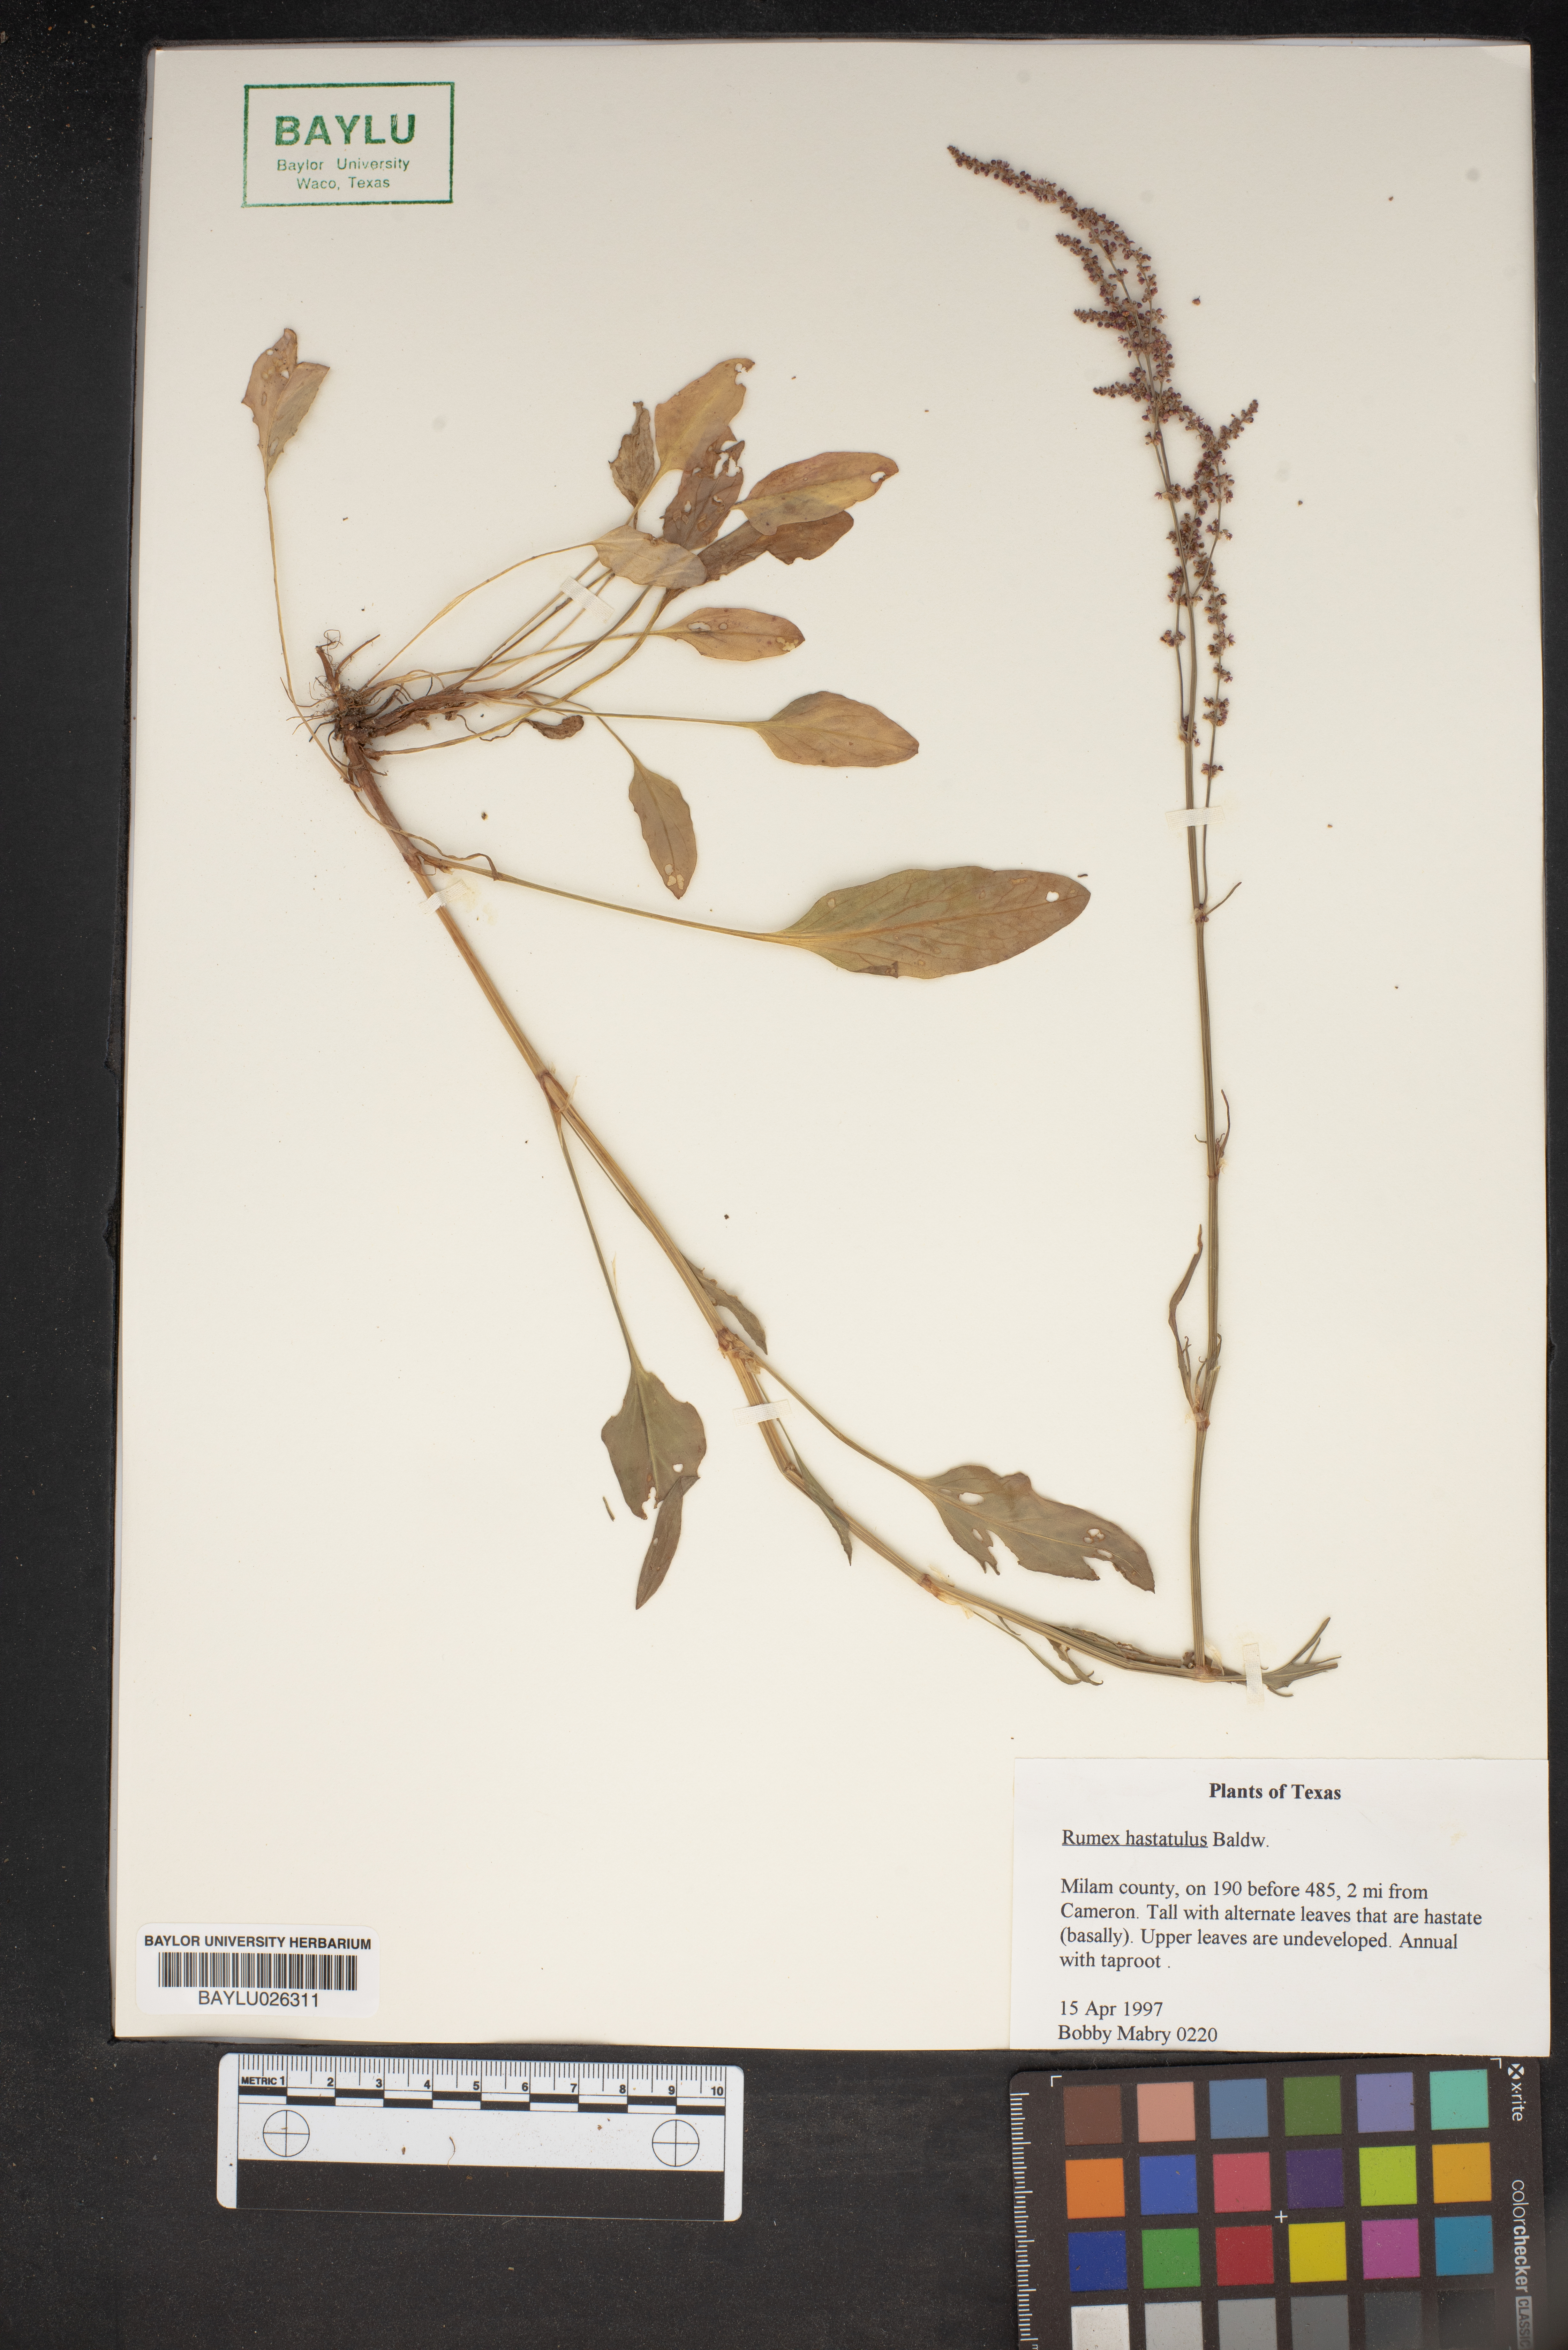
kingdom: Plantae
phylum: Tracheophyta
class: Magnoliopsida
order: Caryophyllales
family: Polygonaceae
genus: Rumex
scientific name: Rumex hastatulus
